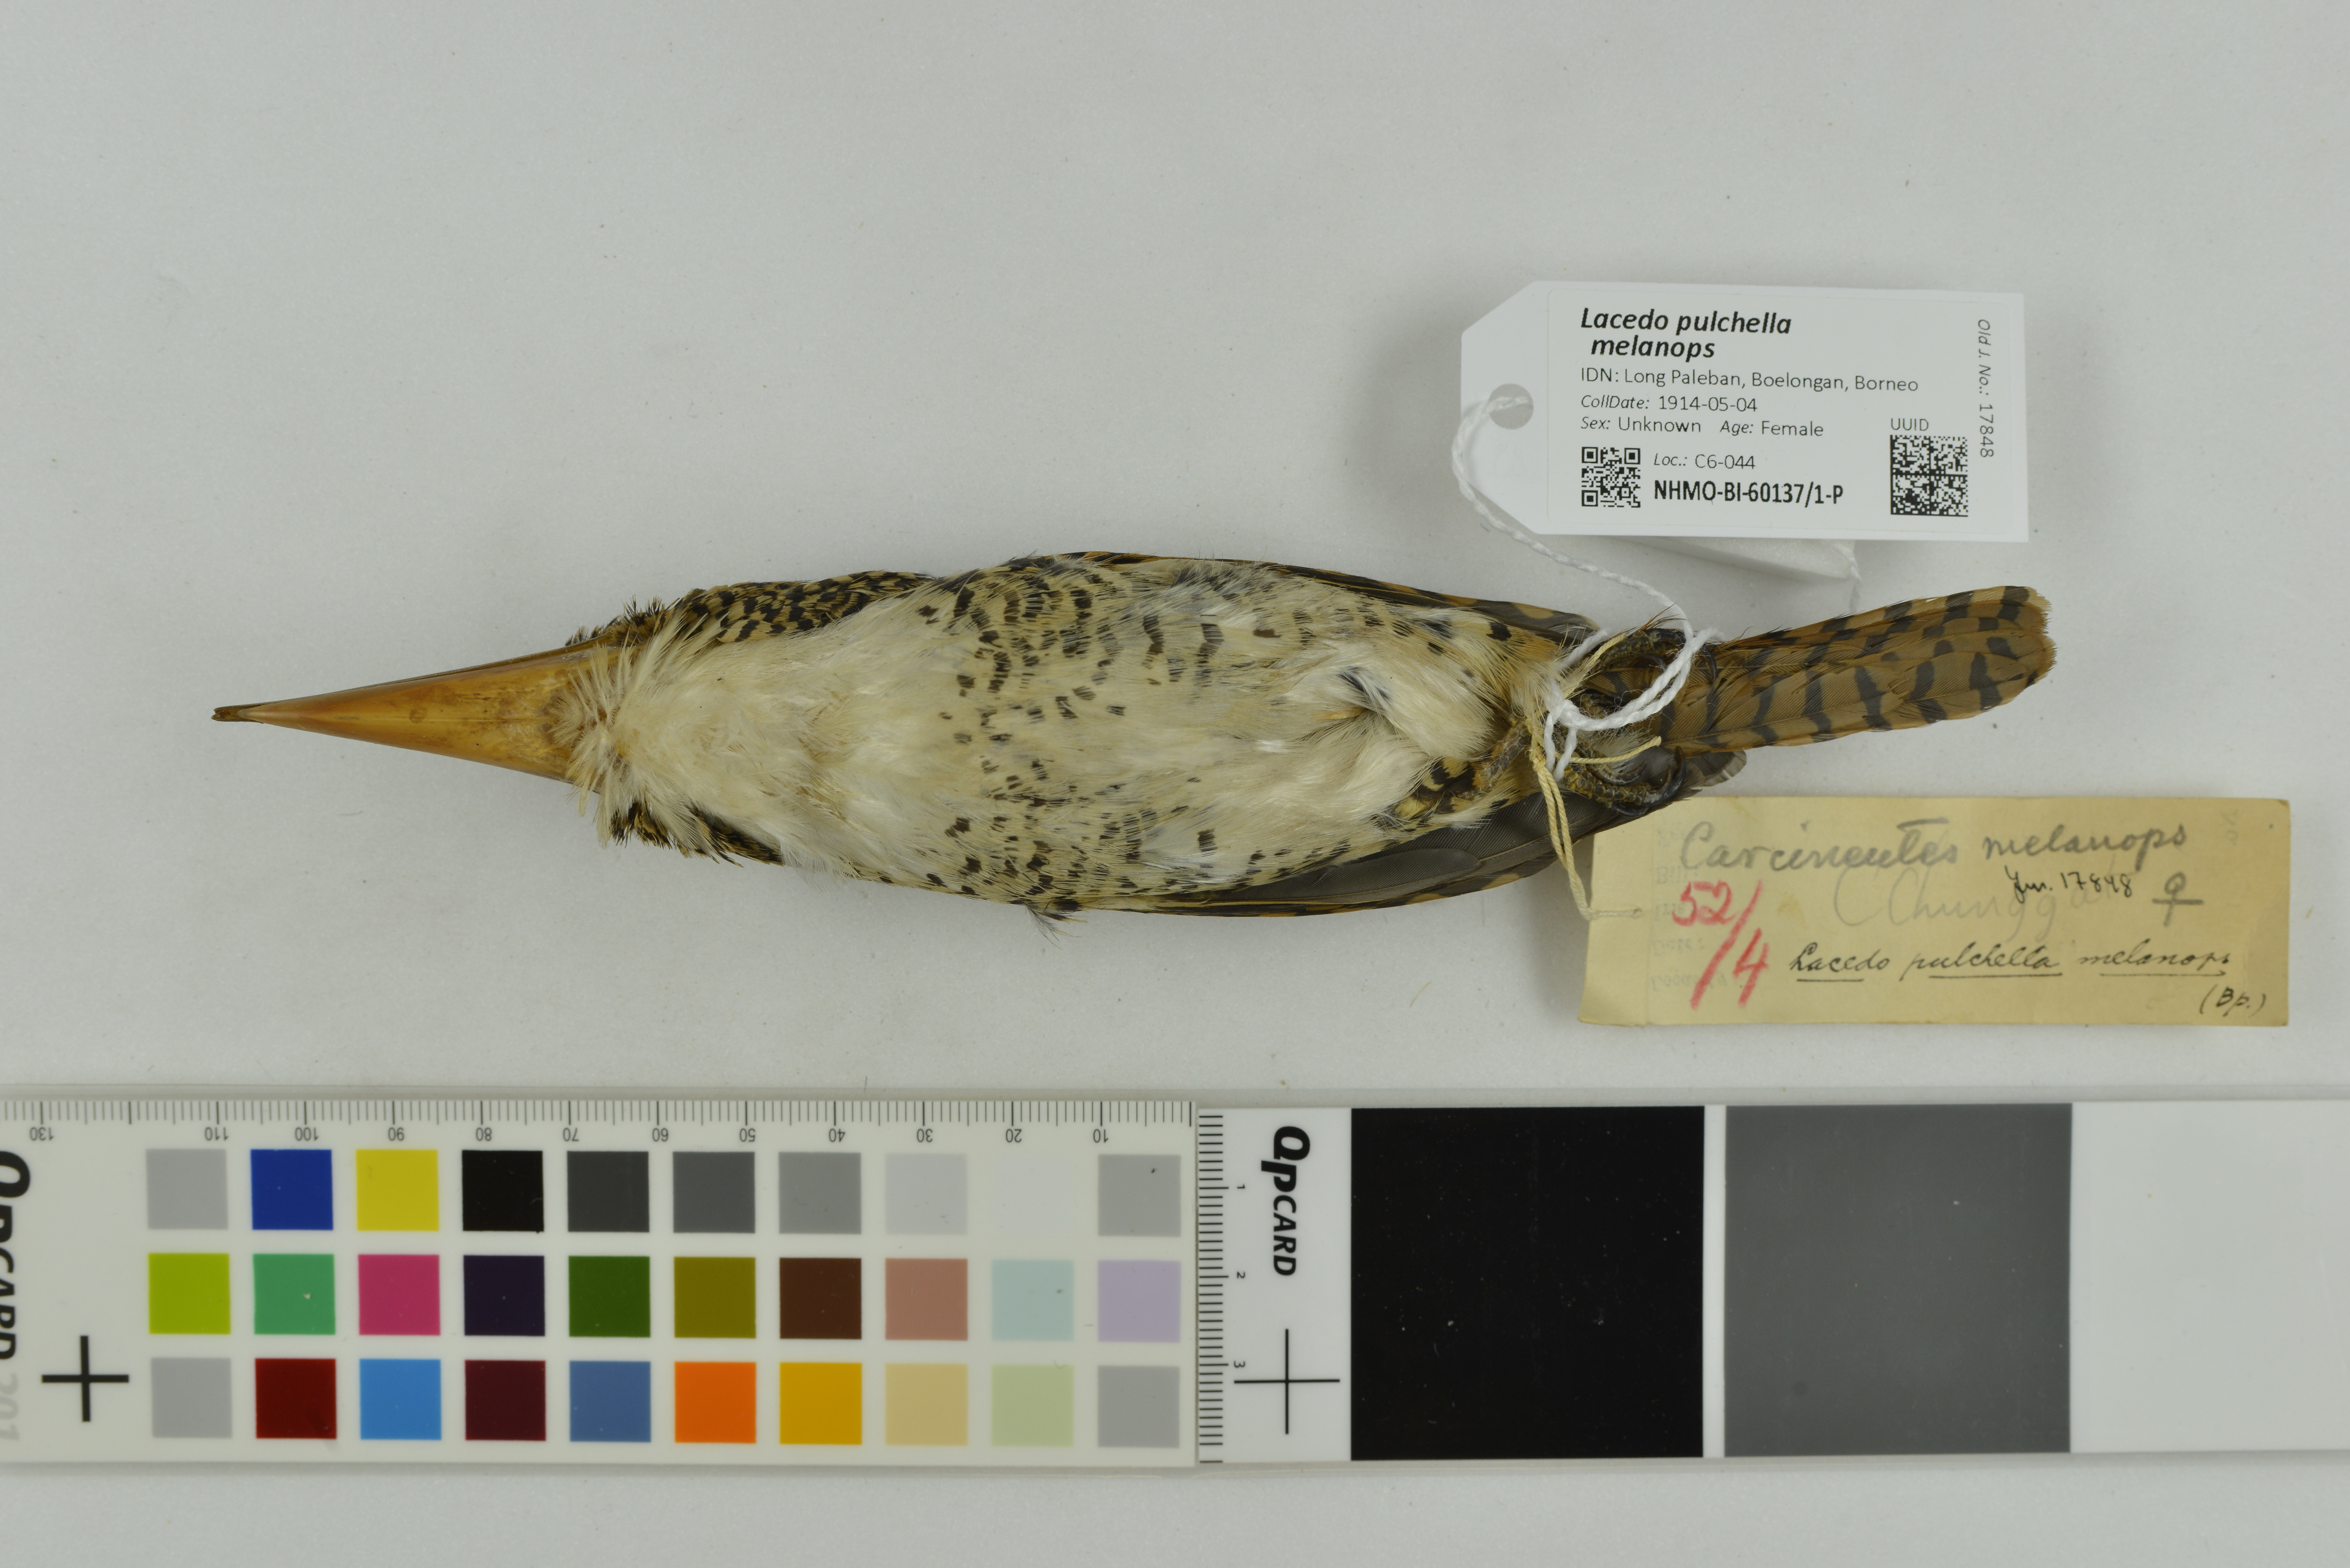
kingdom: Animalia
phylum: Chordata
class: Aves
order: Coraciiformes
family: Alcedinidae
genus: Lacedo
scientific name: Lacedo pulchella
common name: Banded kingfisher
